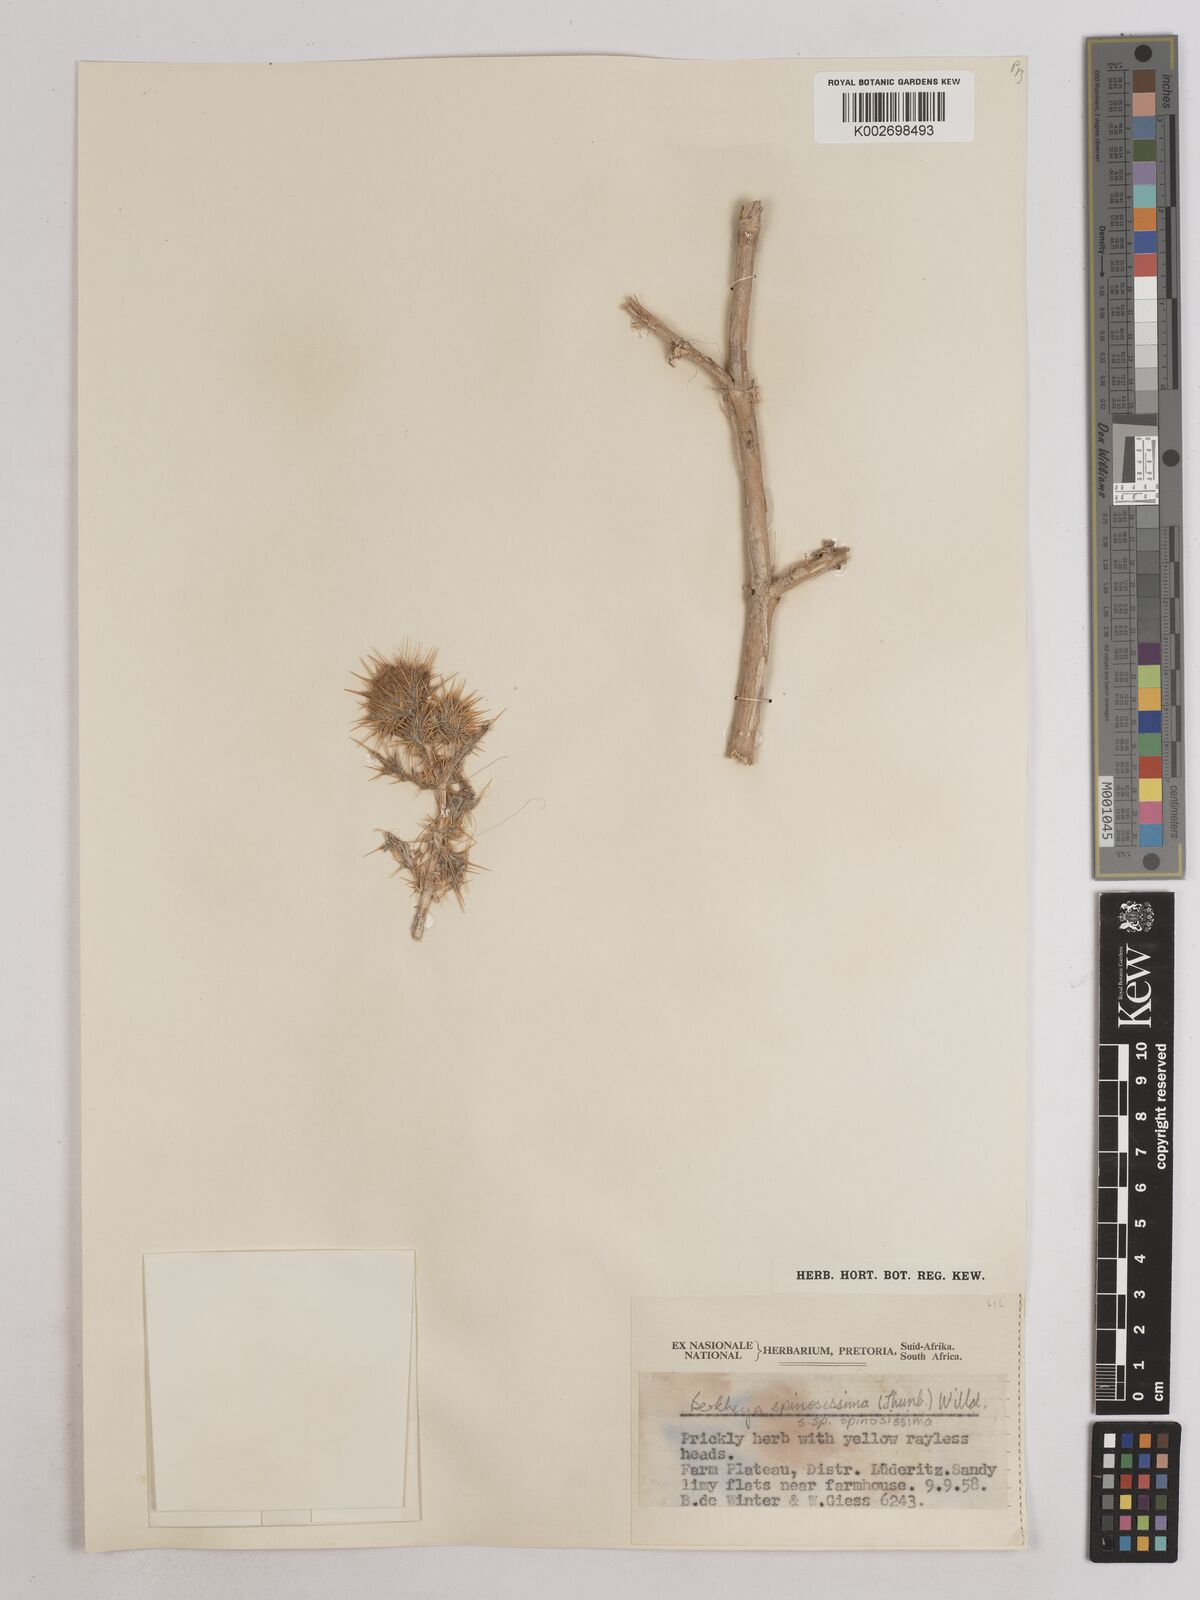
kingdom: Plantae
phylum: Tracheophyta
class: Magnoliopsida
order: Asterales
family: Asteraceae
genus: Berkheya
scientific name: Berkheya spinosissima
